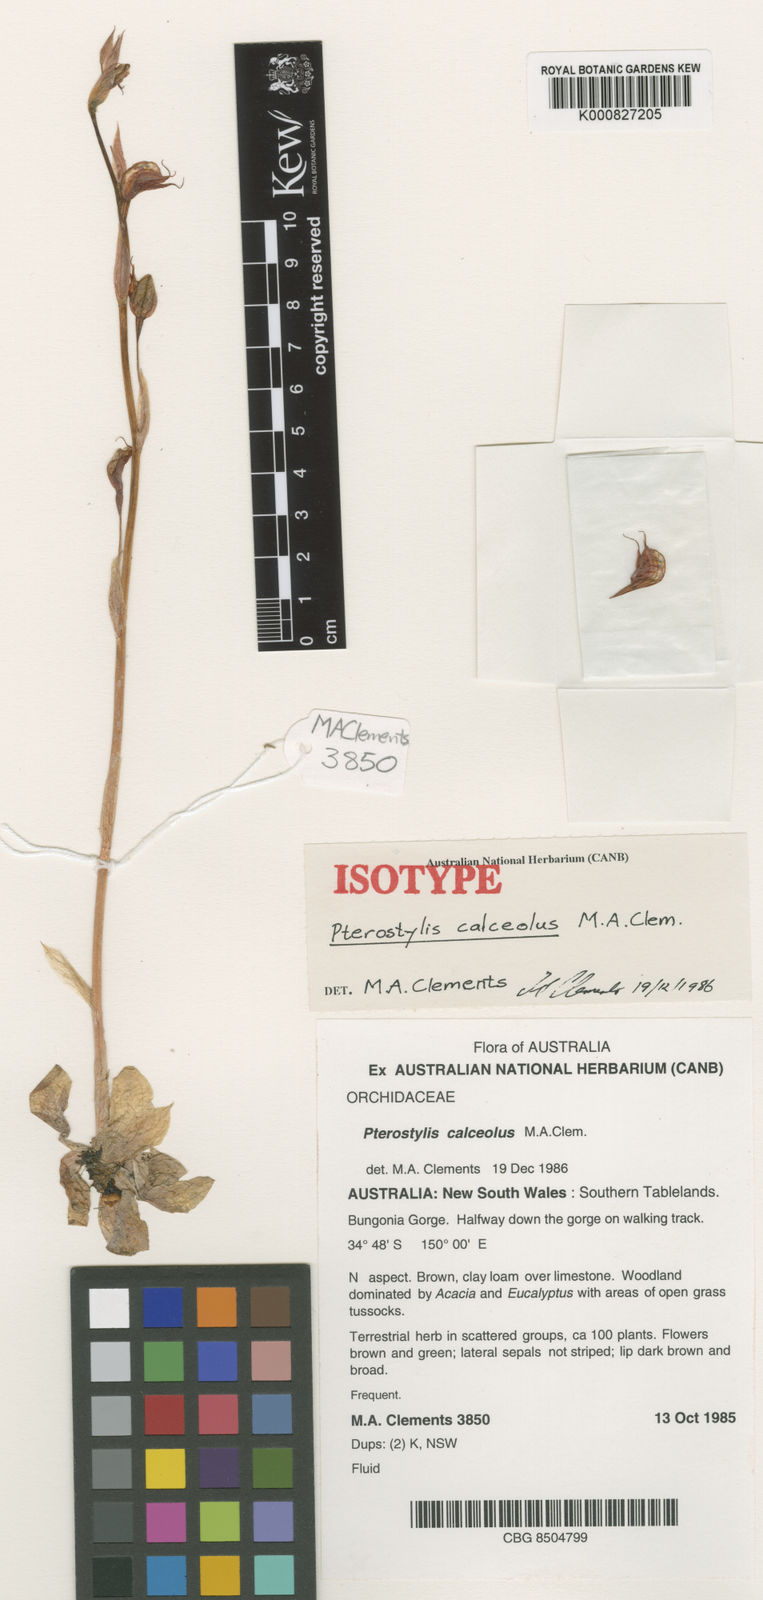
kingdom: Plantae
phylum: Tracheophyta
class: Liliopsida
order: Asparagales
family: Orchidaceae
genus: Pterostylis
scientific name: Pterostylis calceolus
